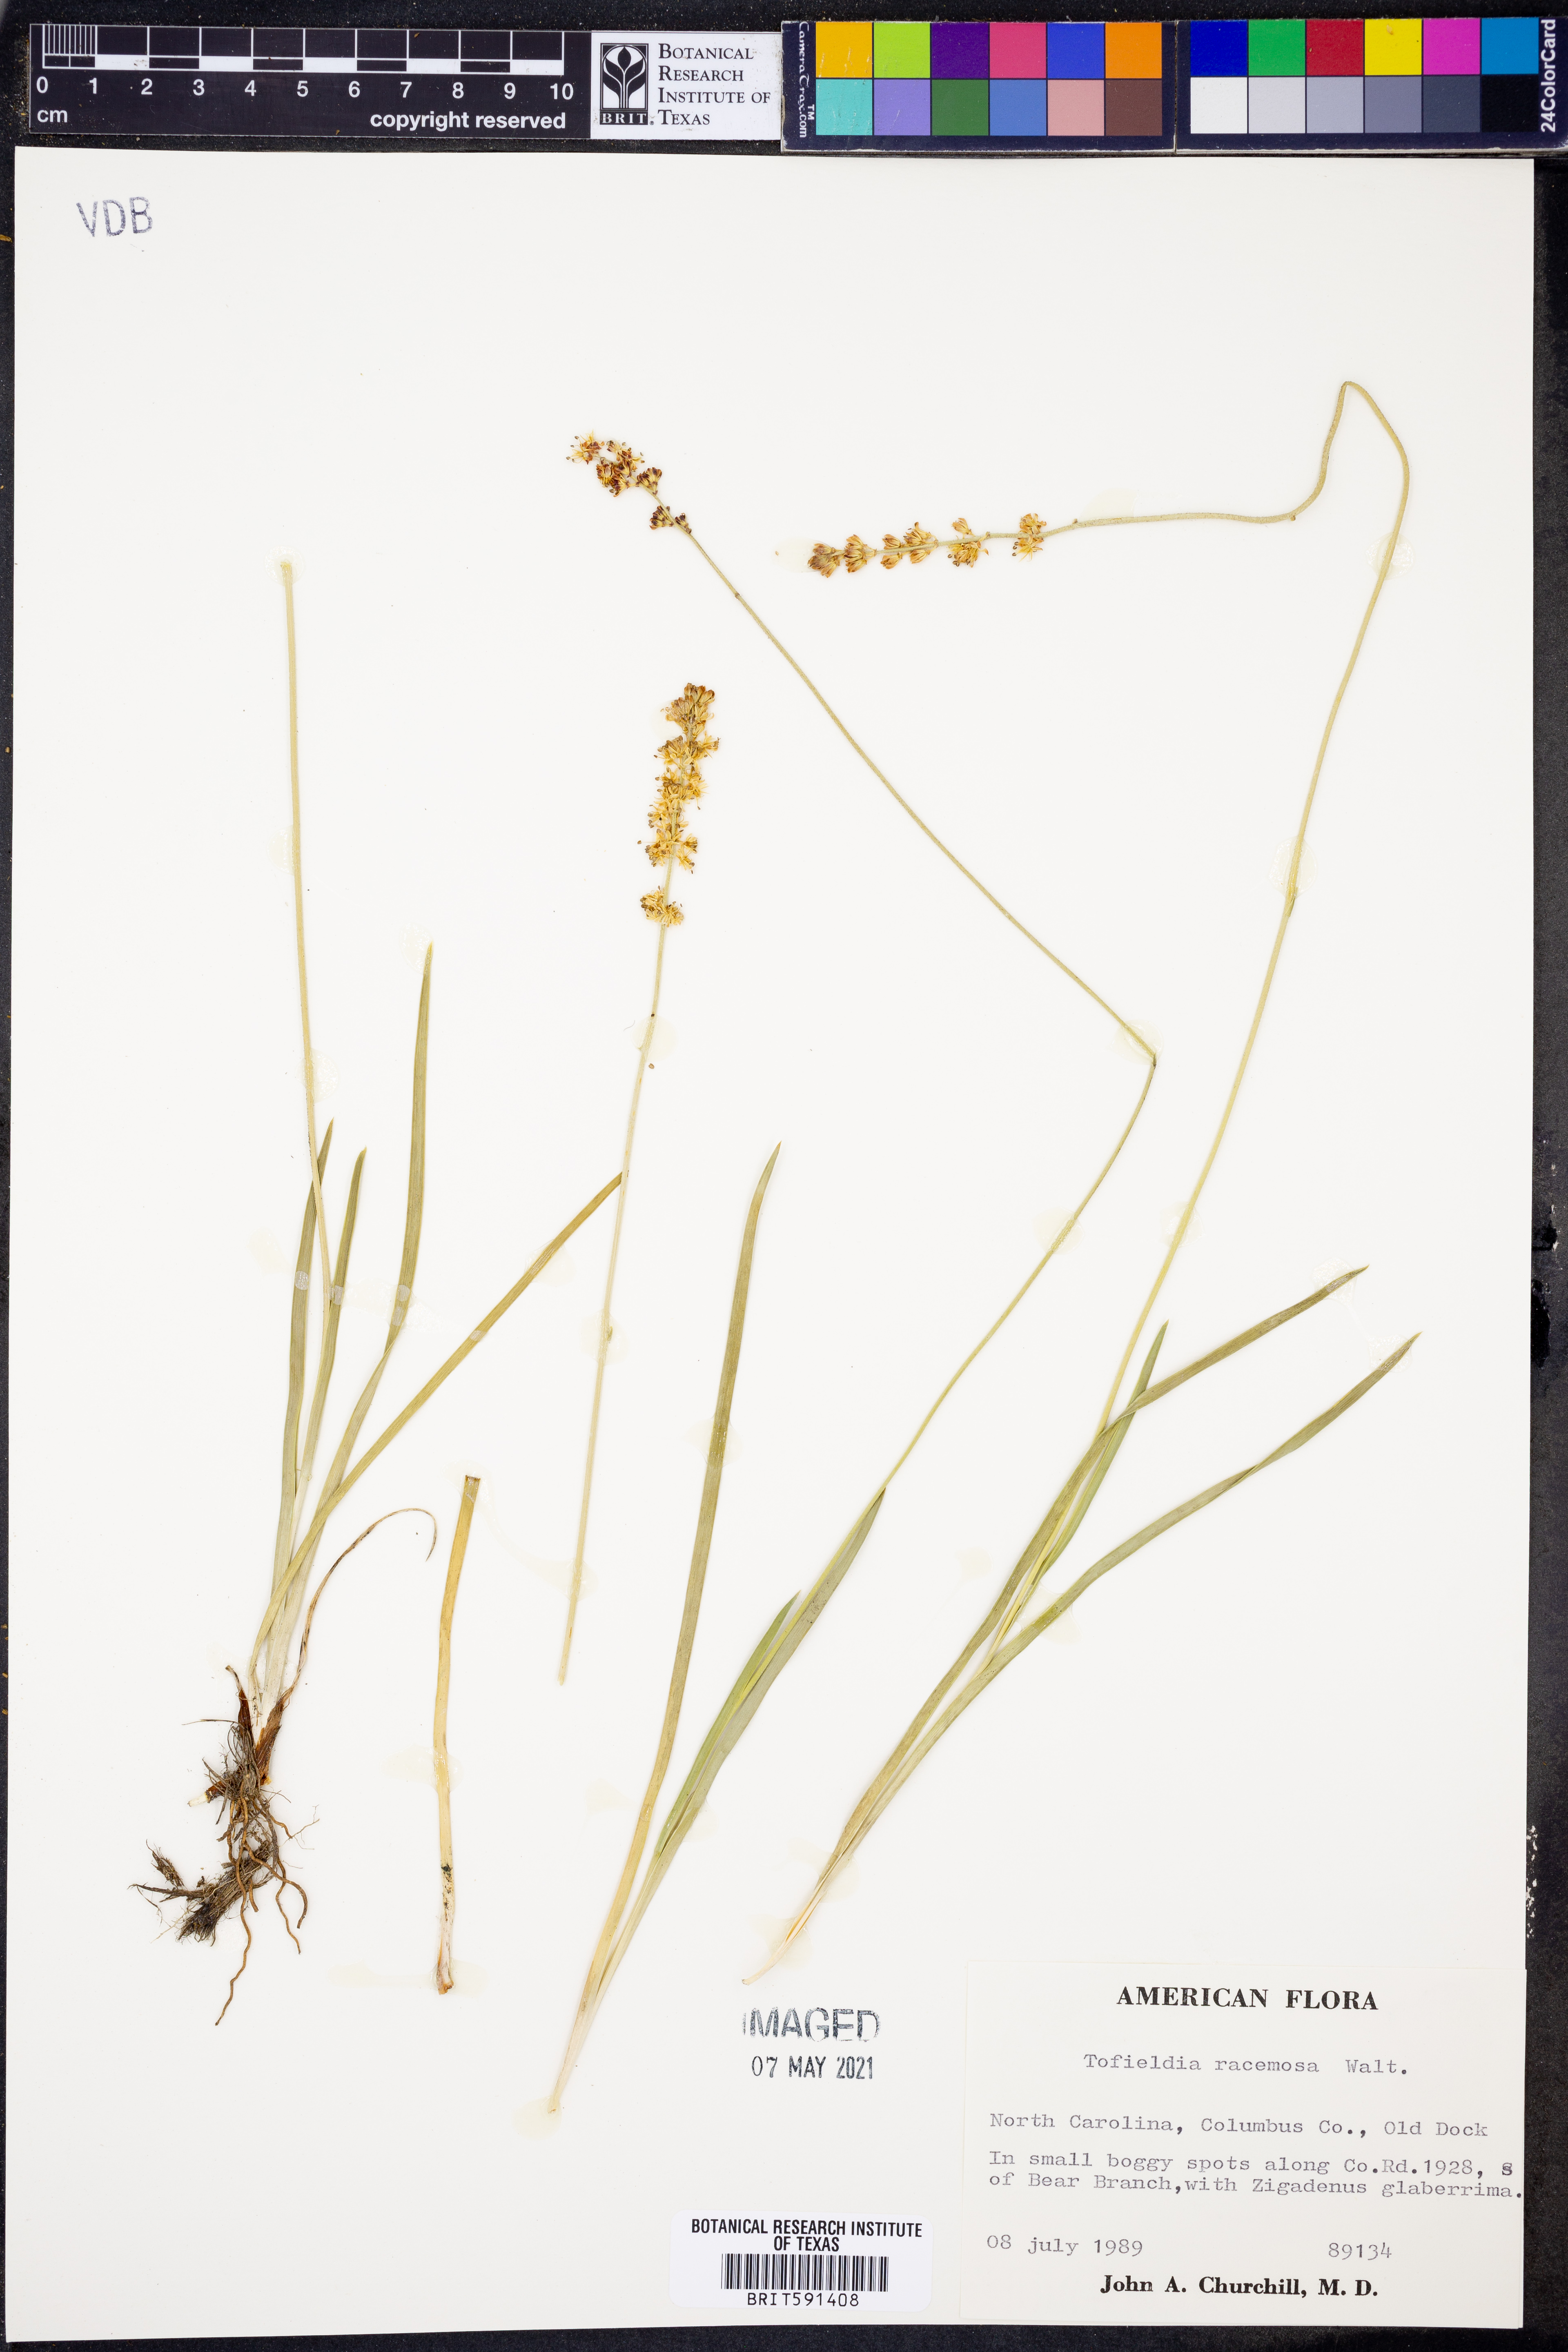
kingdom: Plantae
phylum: Tracheophyta
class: Liliopsida
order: Alismatales
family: Tofieldiaceae
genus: Triantha
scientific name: Triantha racemosa
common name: Coastal false asphodel
